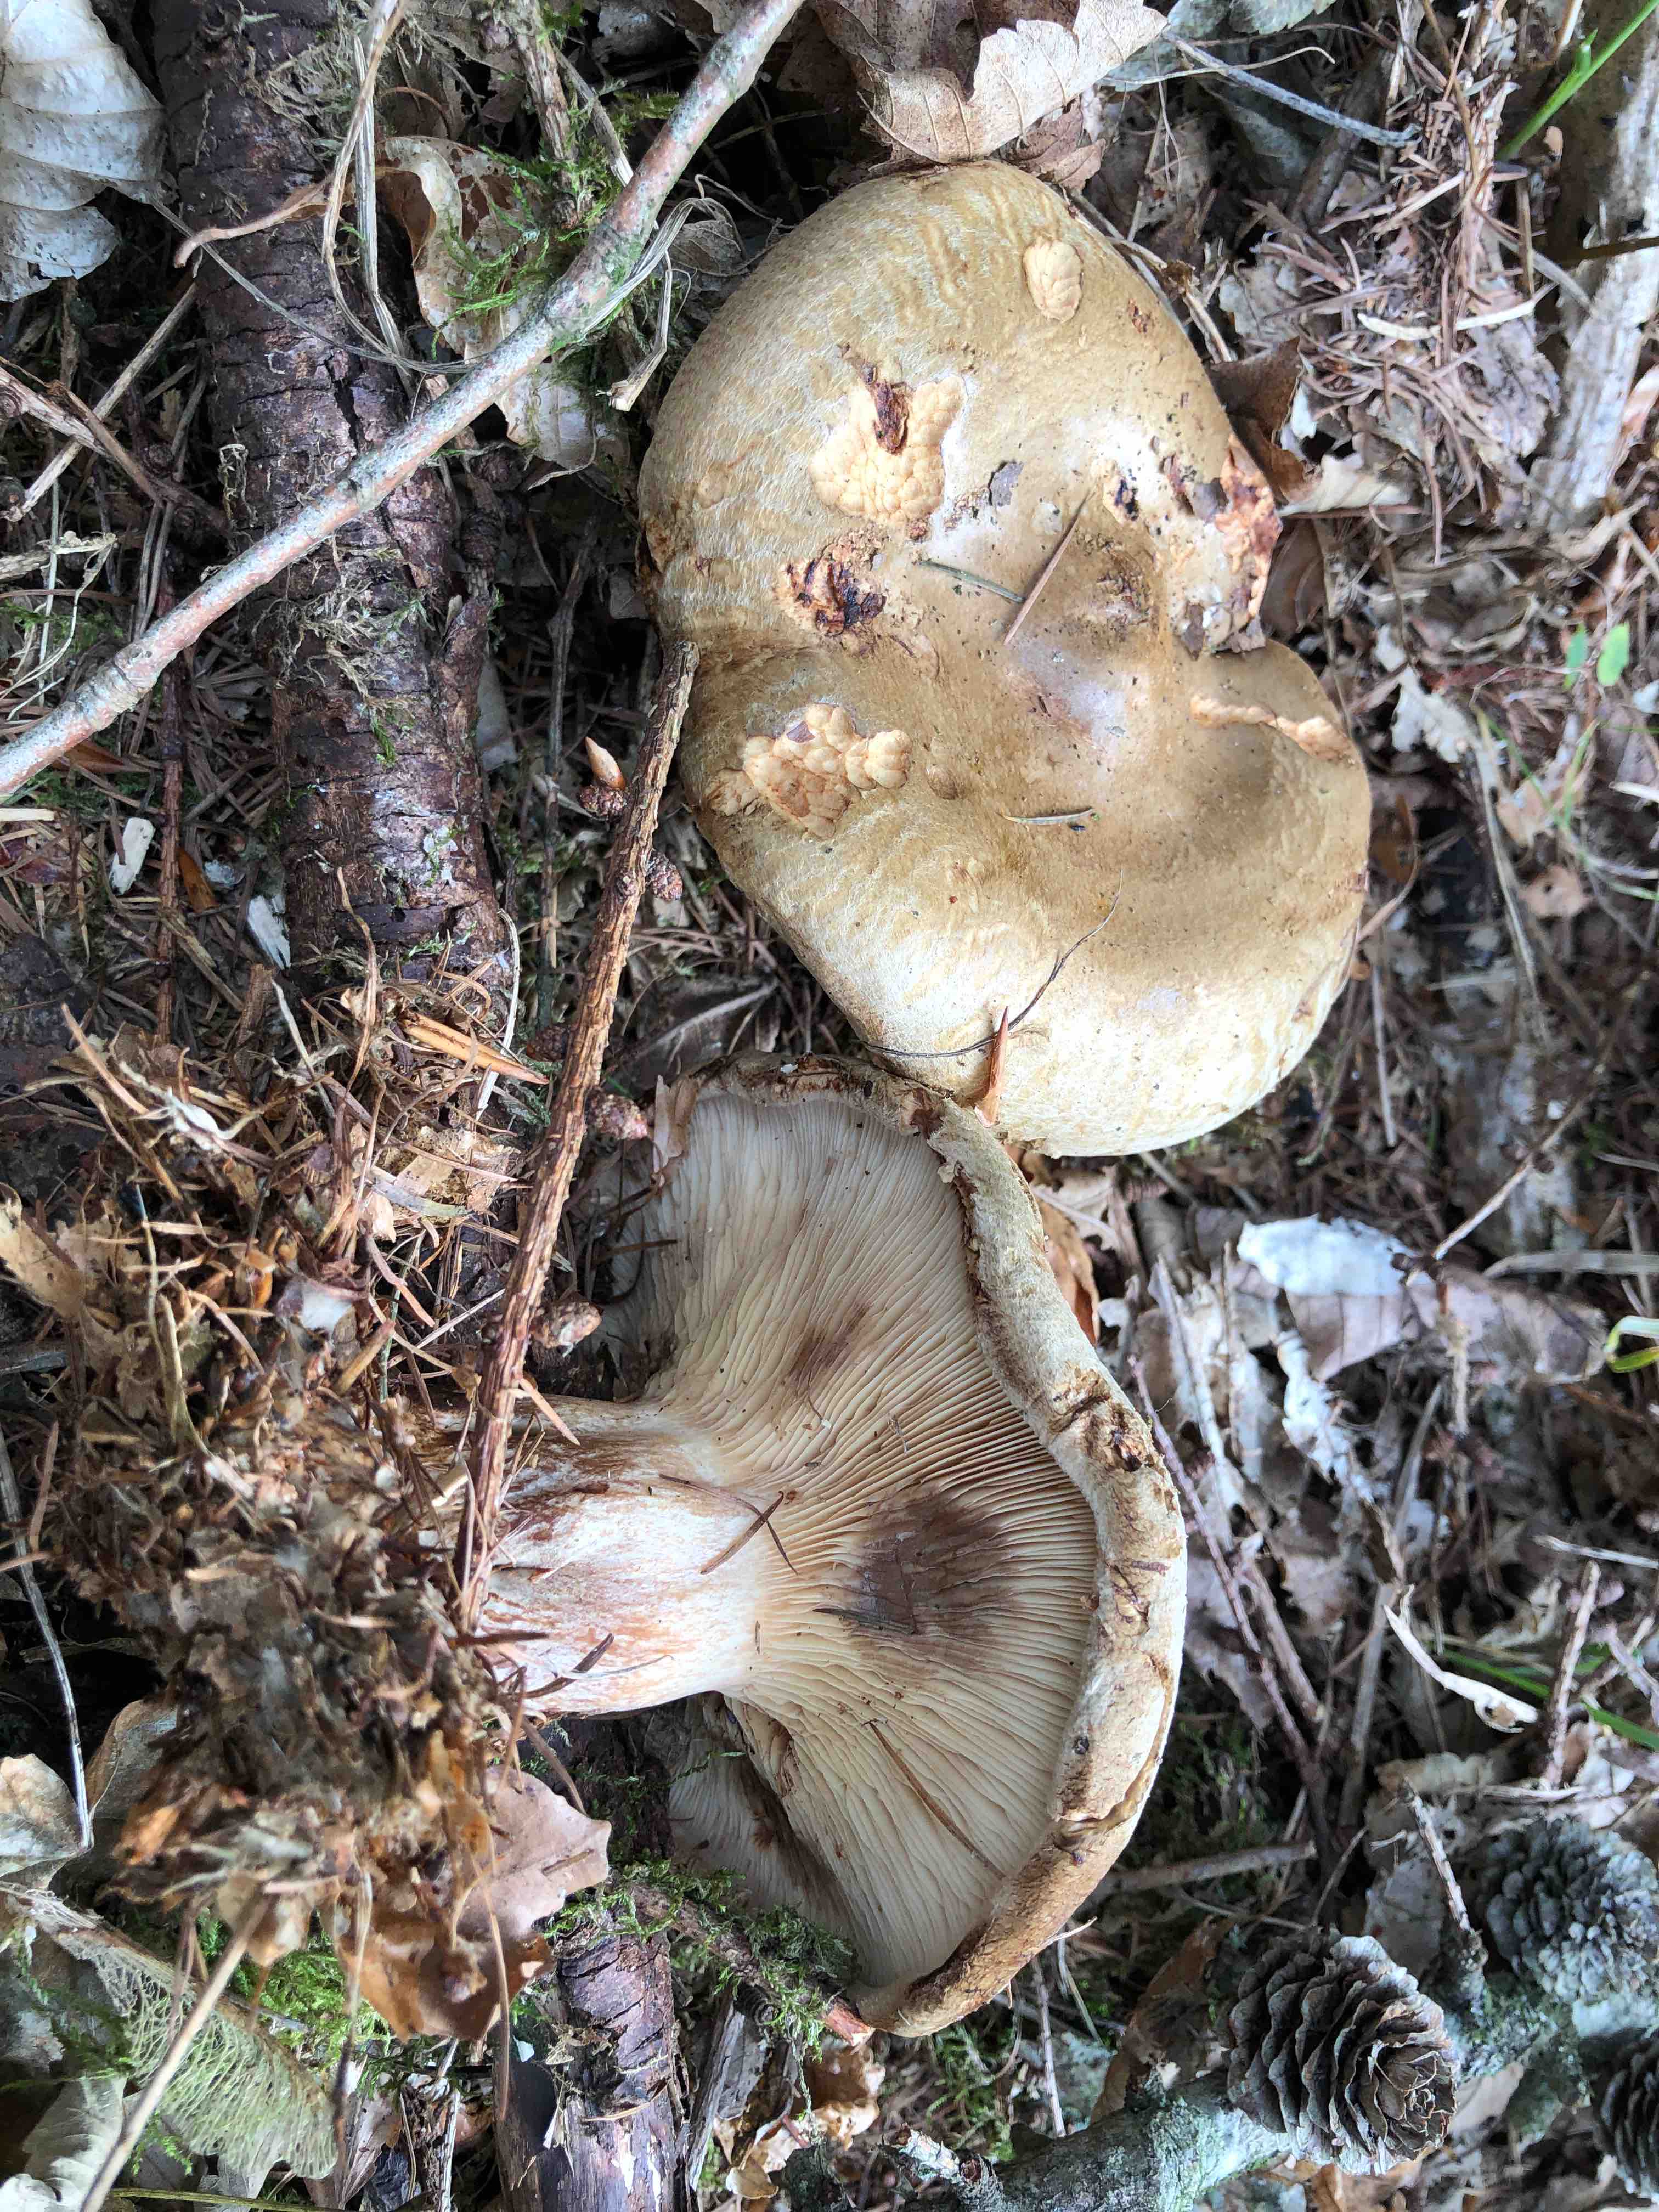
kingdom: Fungi
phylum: Basidiomycota
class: Agaricomycetes
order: Boletales
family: Paxillaceae
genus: Paxillus
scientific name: Paxillus involutus
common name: almindelig netbladhat
